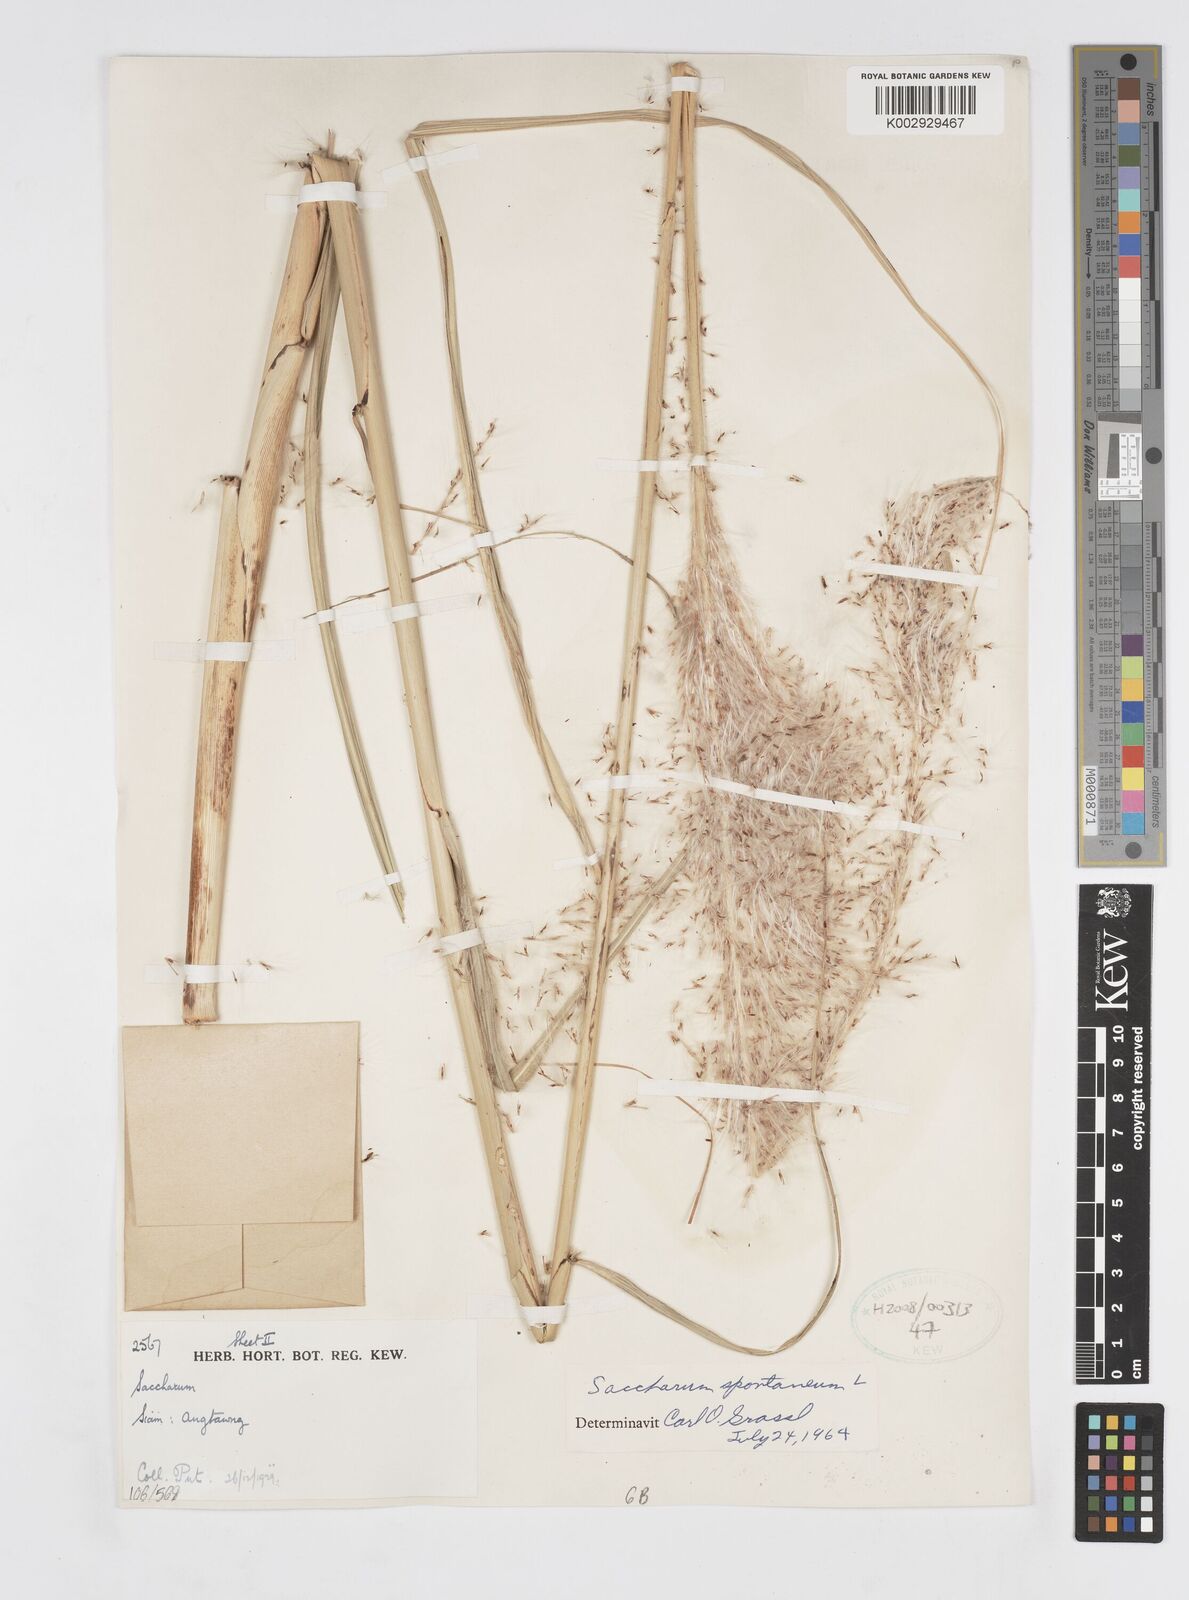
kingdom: Plantae
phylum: Tracheophyta
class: Liliopsida
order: Poales
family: Poaceae
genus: Saccharum
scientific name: Saccharum spontaneum
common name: Wild sugarcane
